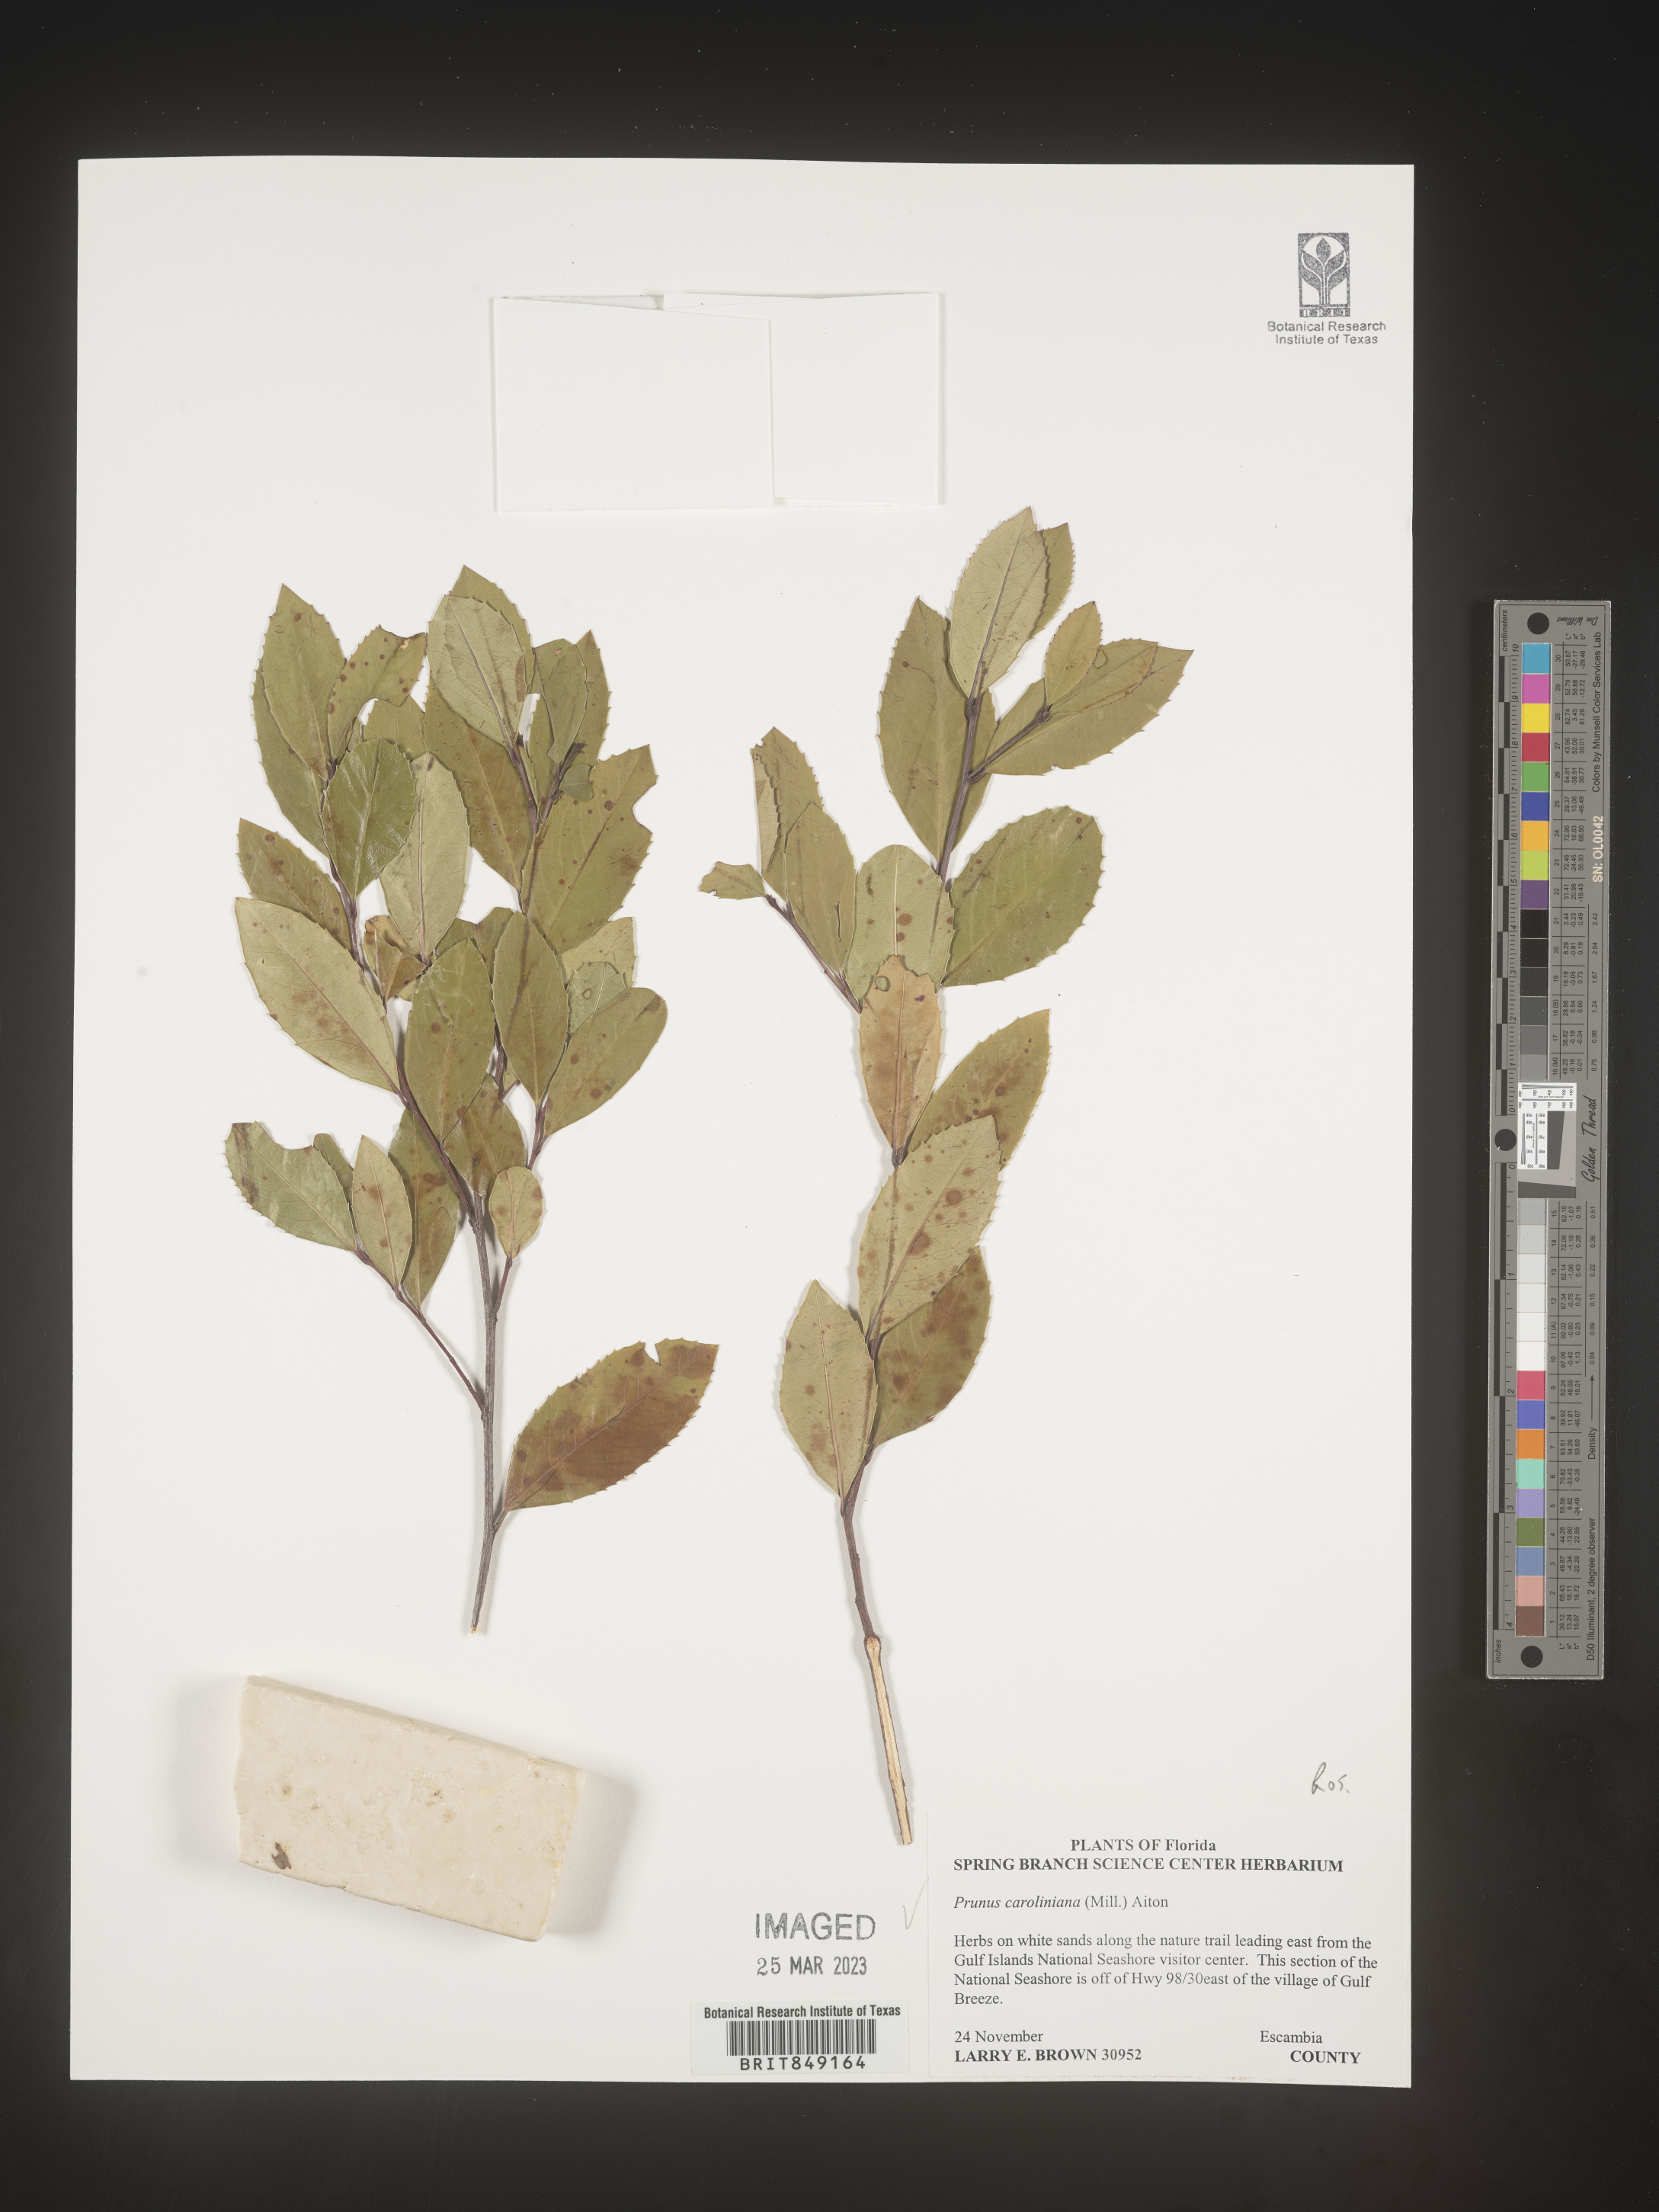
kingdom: Plantae
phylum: Tracheophyta
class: Magnoliopsida
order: Rosales
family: Rosaceae
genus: Prunus
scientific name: Prunus caroliniana
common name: Carolina laurel cherry
